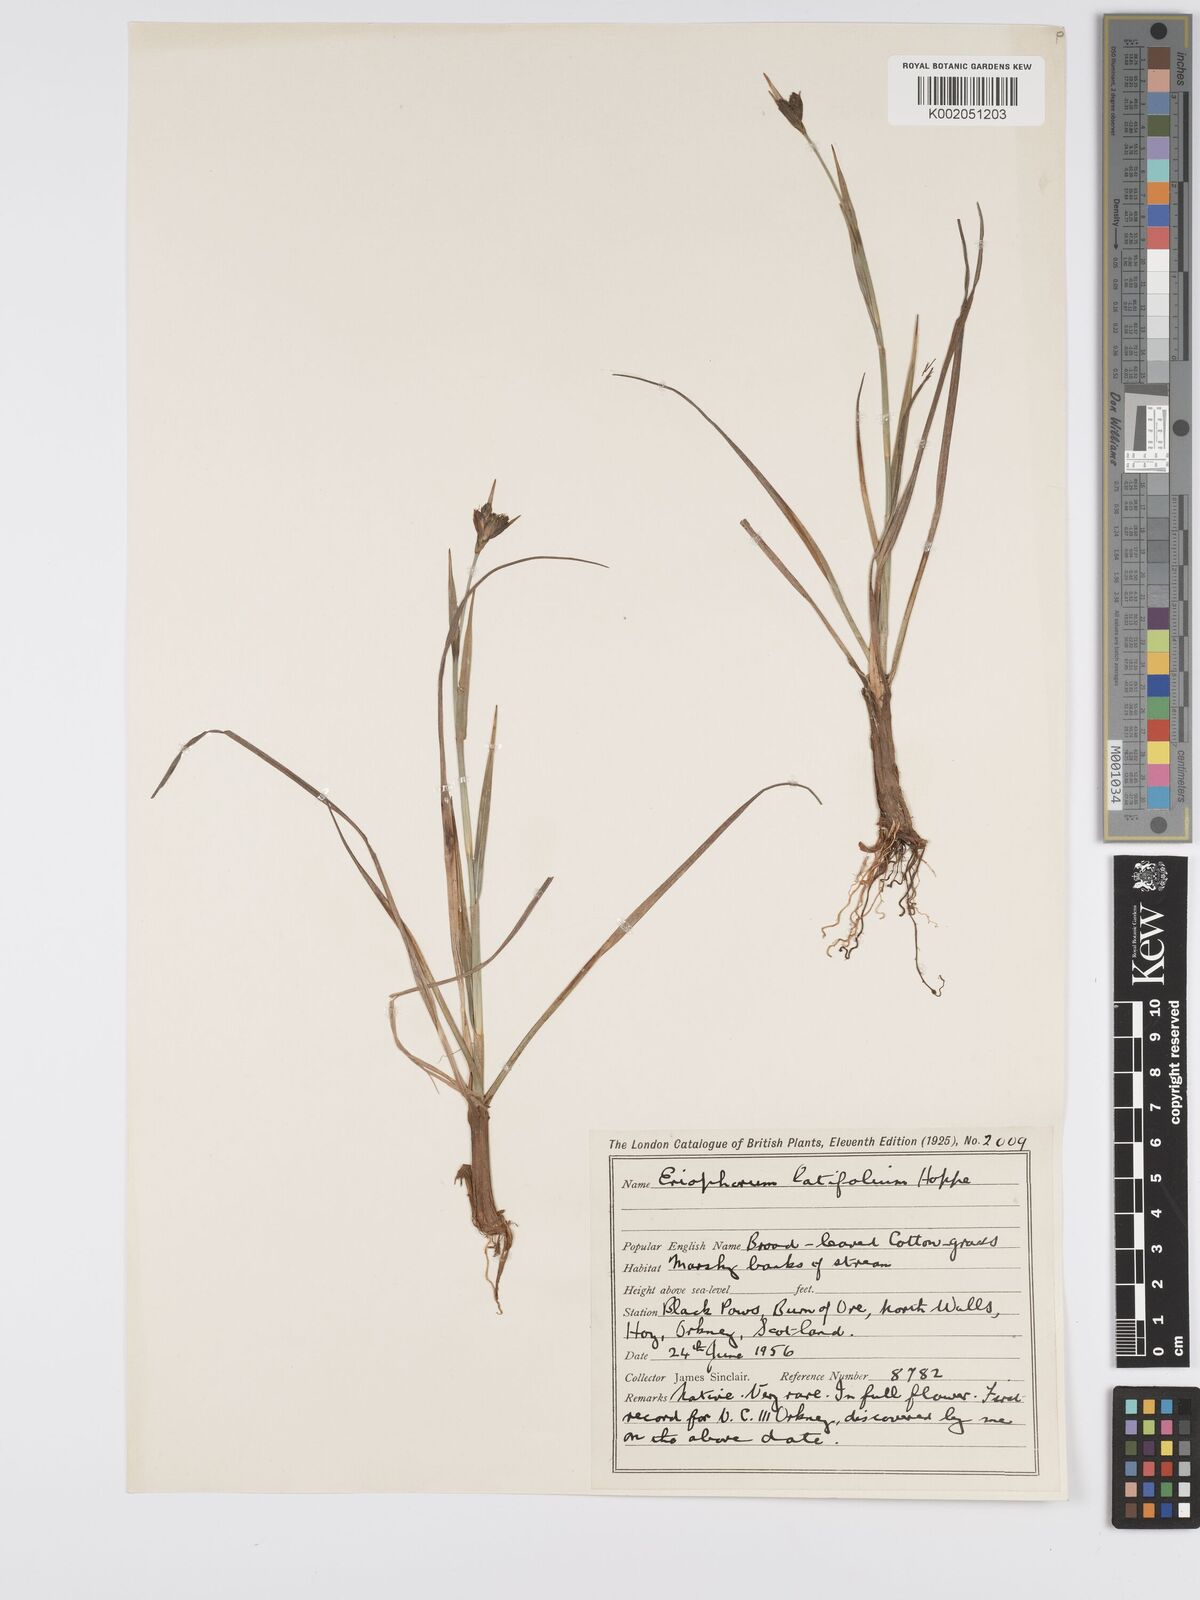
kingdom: Plantae
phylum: Tracheophyta
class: Liliopsida
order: Poales
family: Cyperaceae
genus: Eriophorum
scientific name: Eriophorum latifolium
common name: Broad-leaved cottongrass
